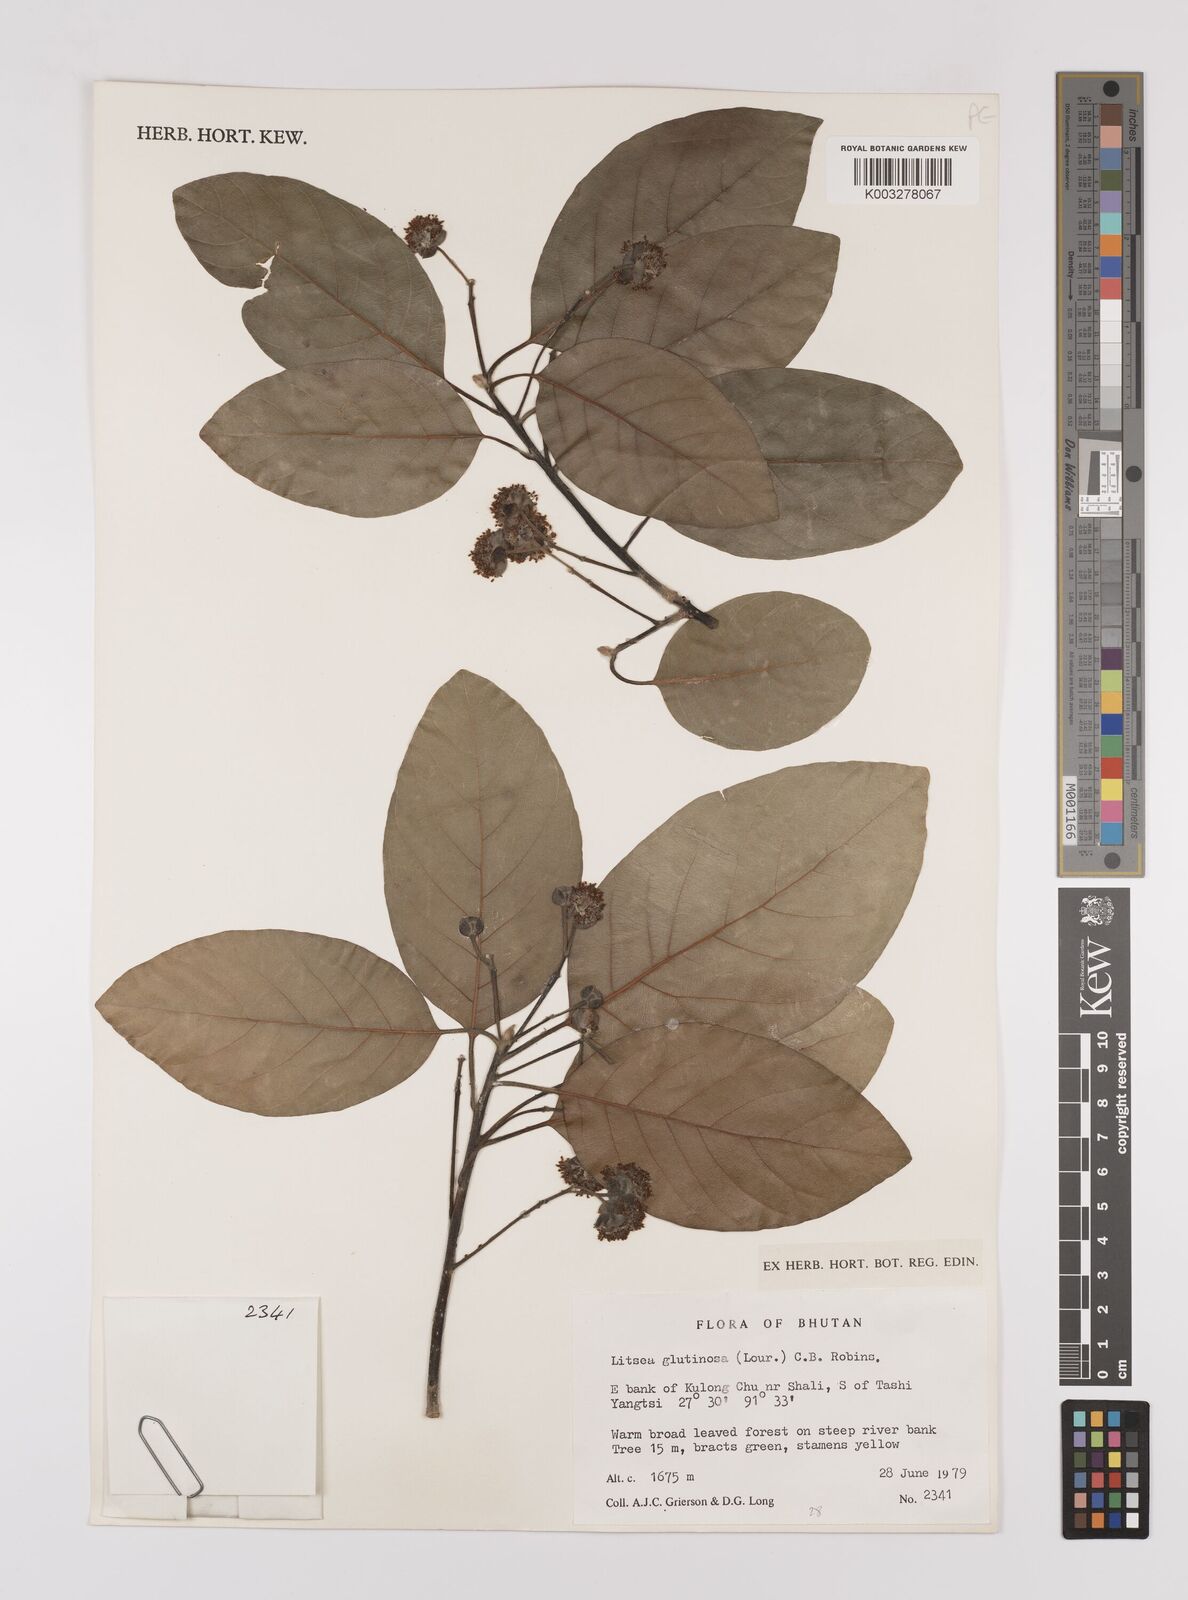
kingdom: Plantae
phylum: Tracheophyta
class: Magnoliopsida
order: Laurales
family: Lauraceae
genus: Litsea
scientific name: Litsea glutinosa
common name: Indian-laurel
